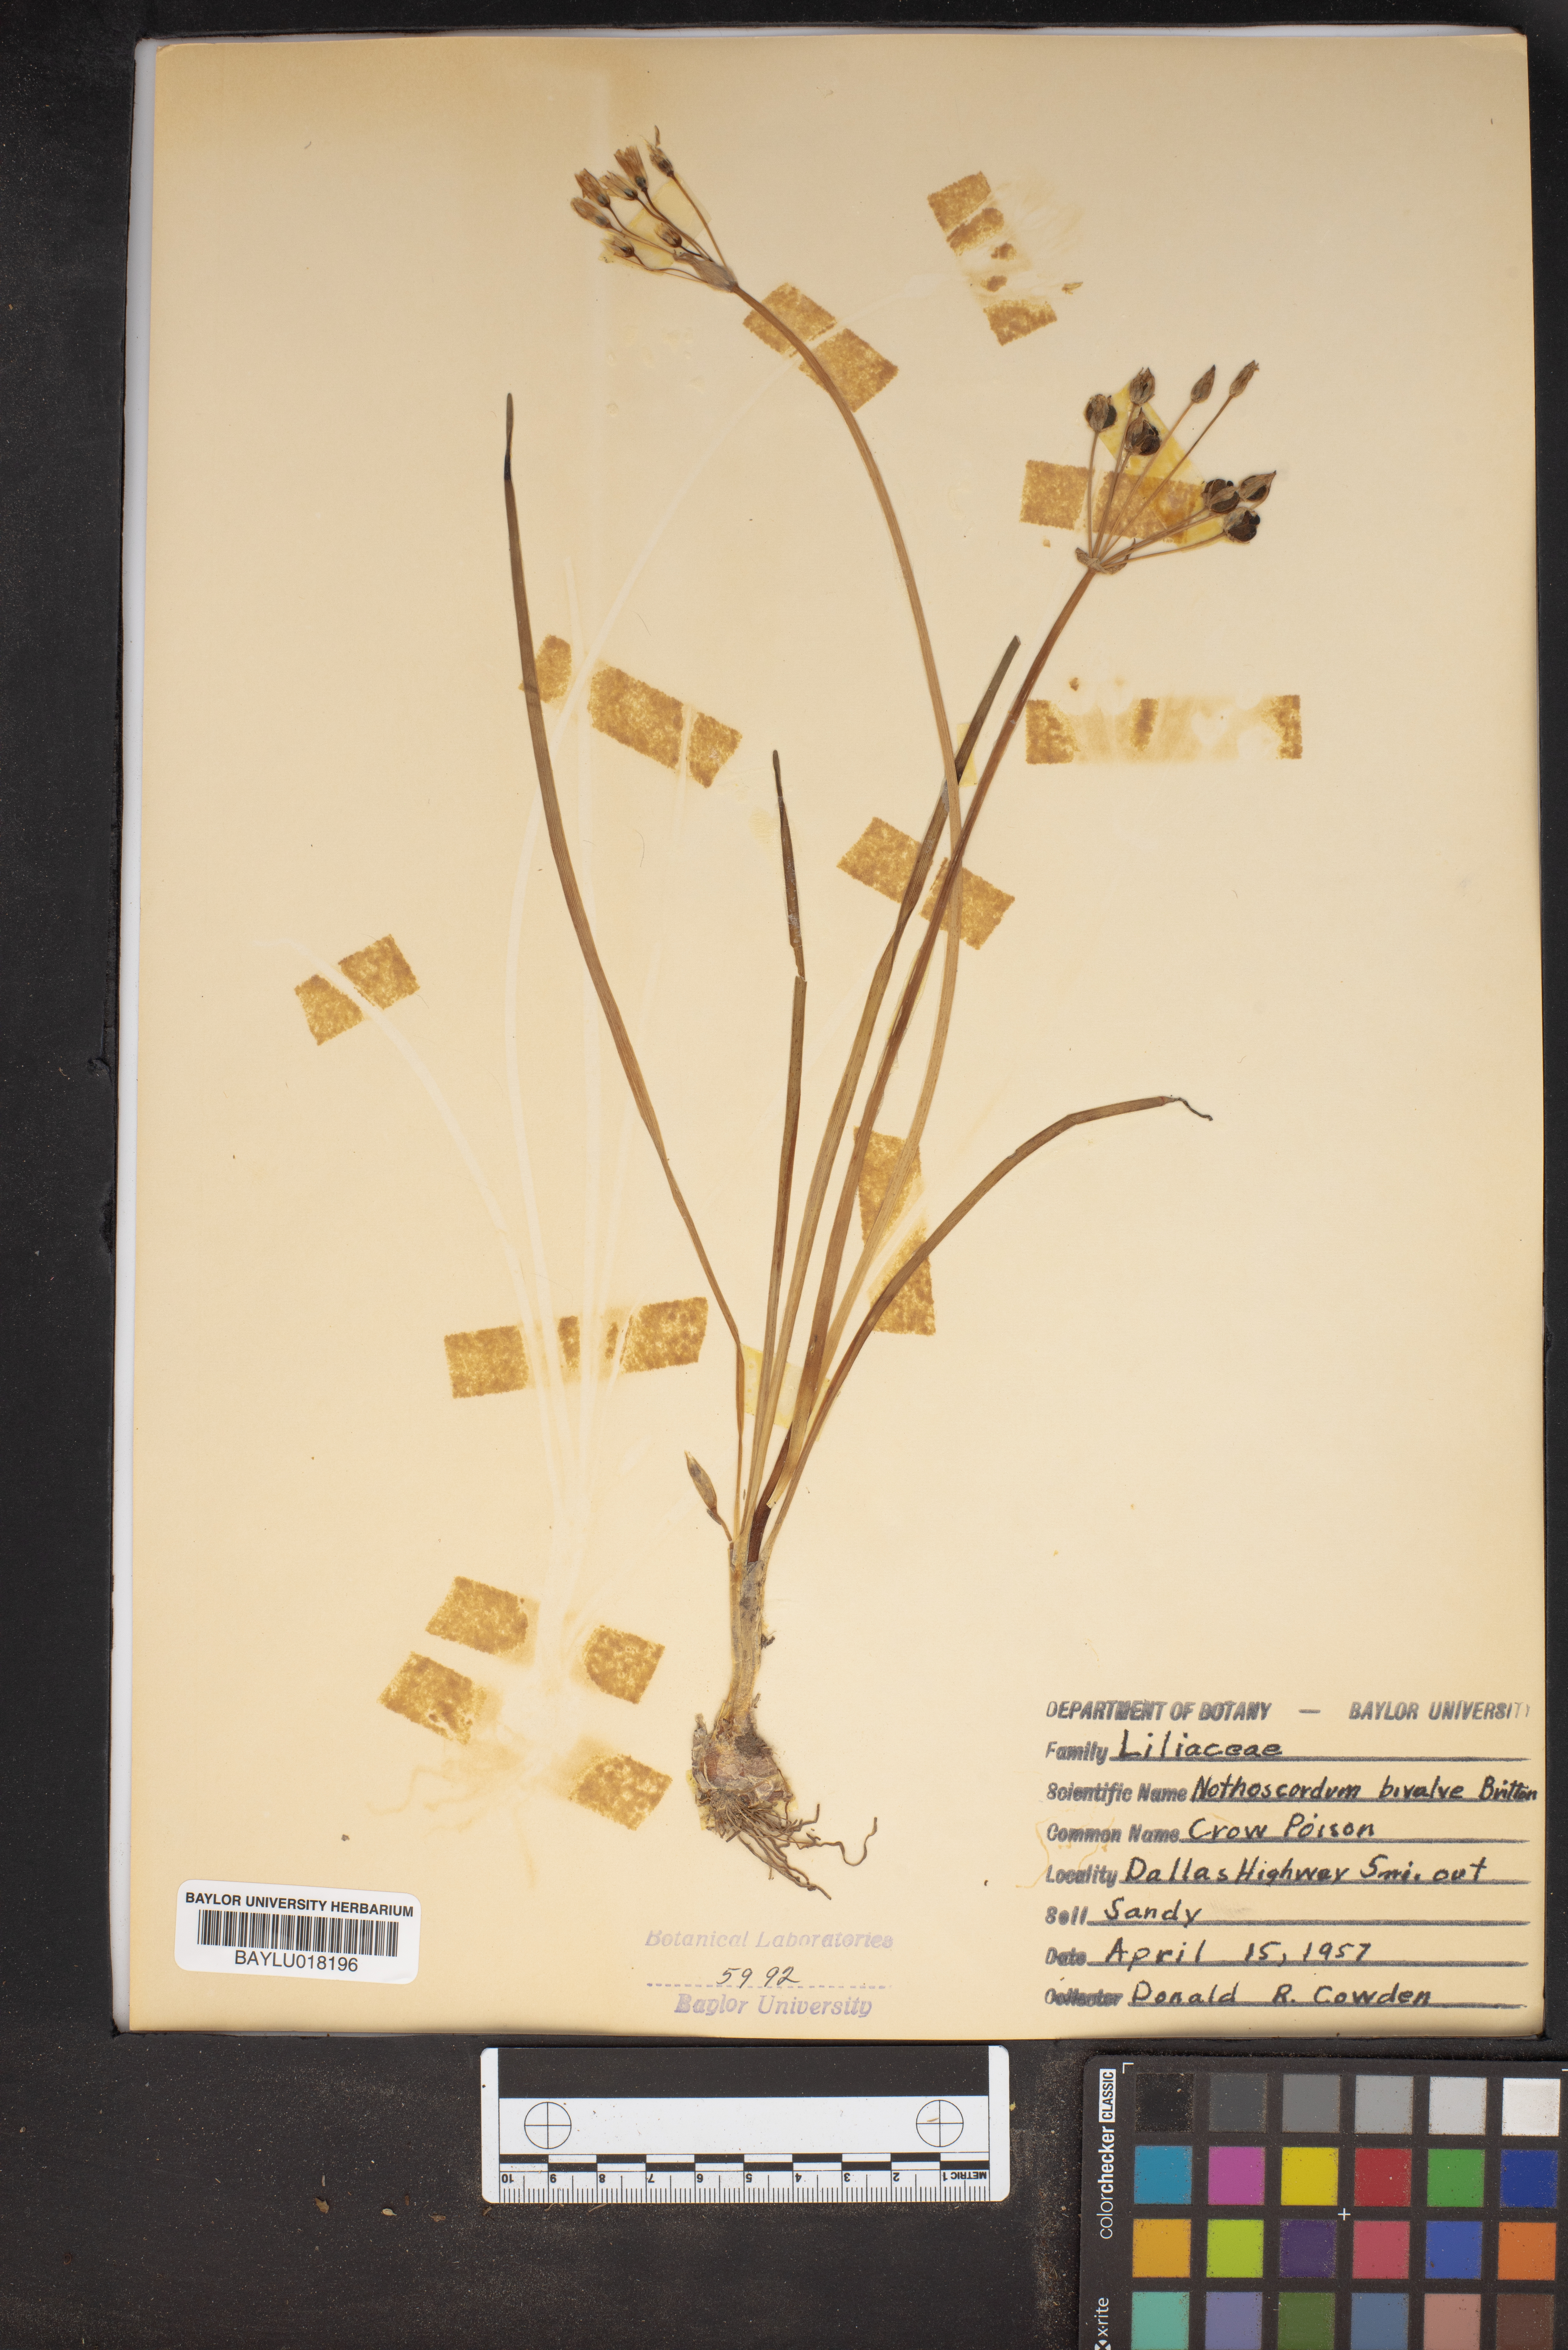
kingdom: Plantae
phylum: Tracheophyta
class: Liliopsida
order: Asparagales
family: Amaryllidaceae
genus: Nothoscordum
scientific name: Nothoscordum bivalve
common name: Crow-poison
